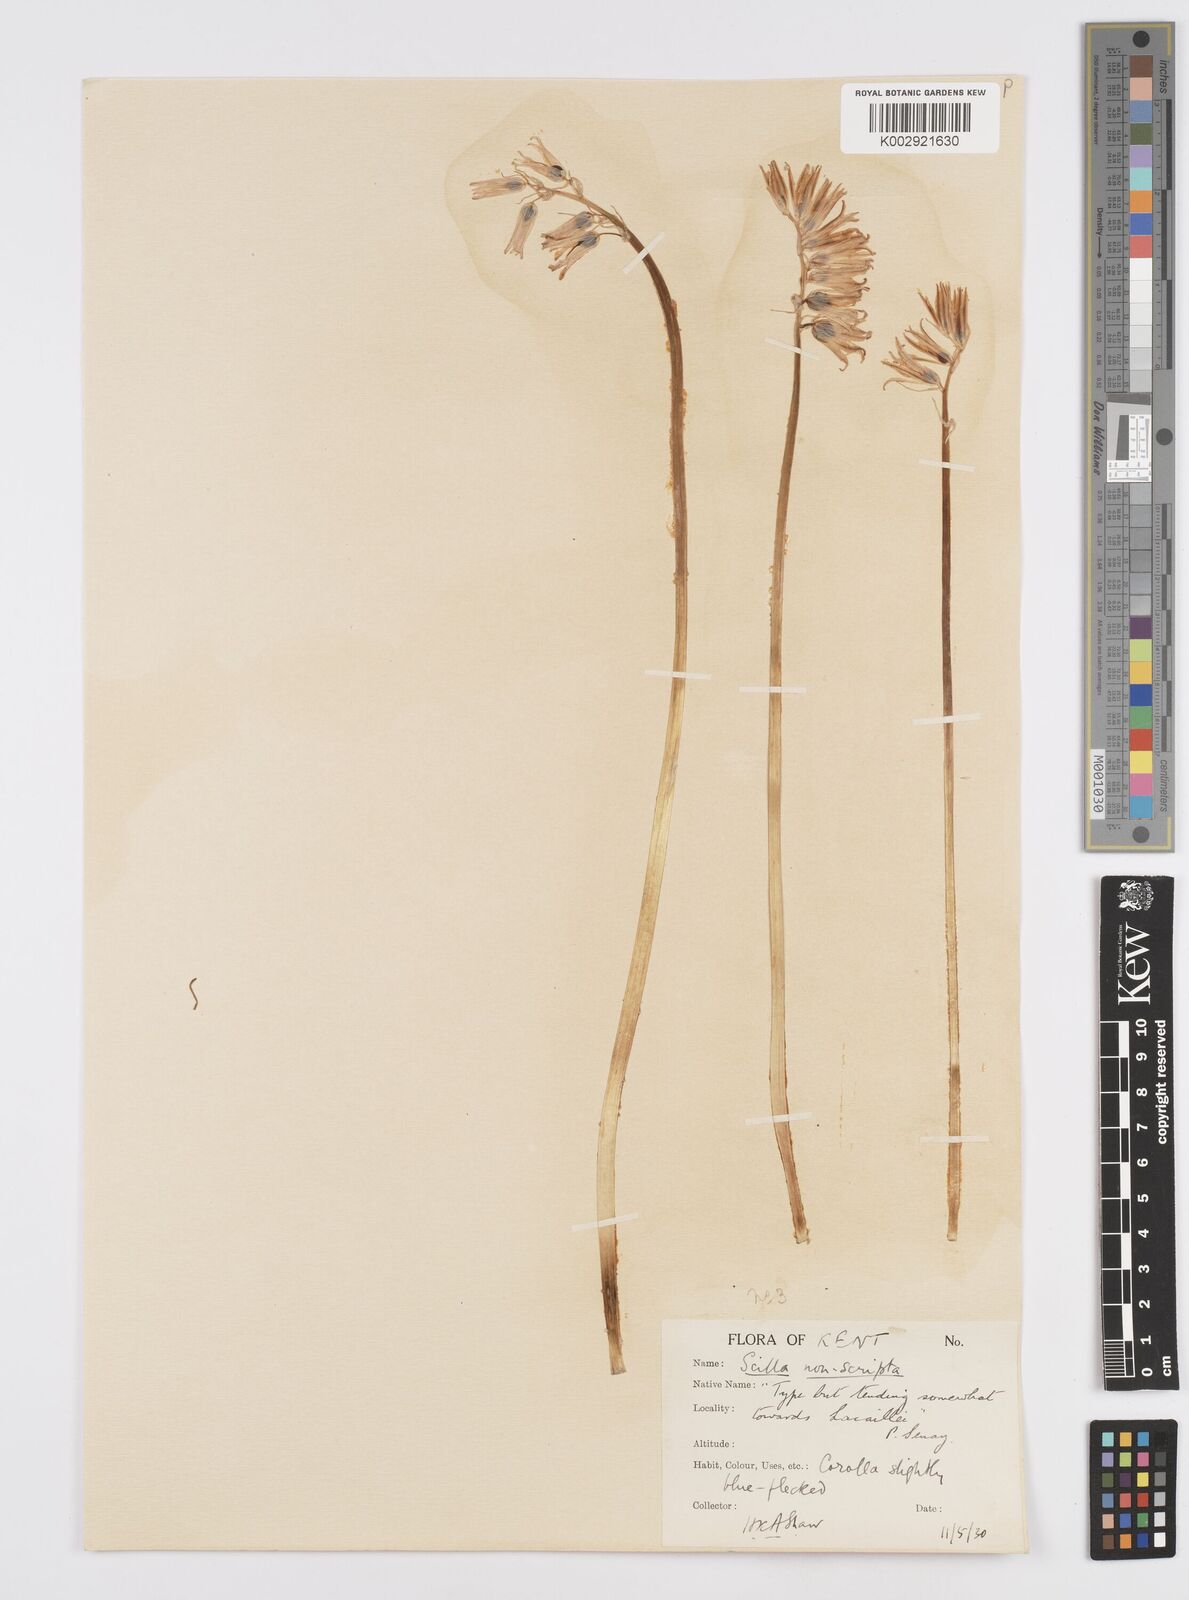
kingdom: Plantae
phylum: Tracheophyta
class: Liliopsida
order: Asparagales
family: Asparagaceae
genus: Hyacinthoides
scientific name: Hyacinthoides non-scripta
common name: Bluebell
